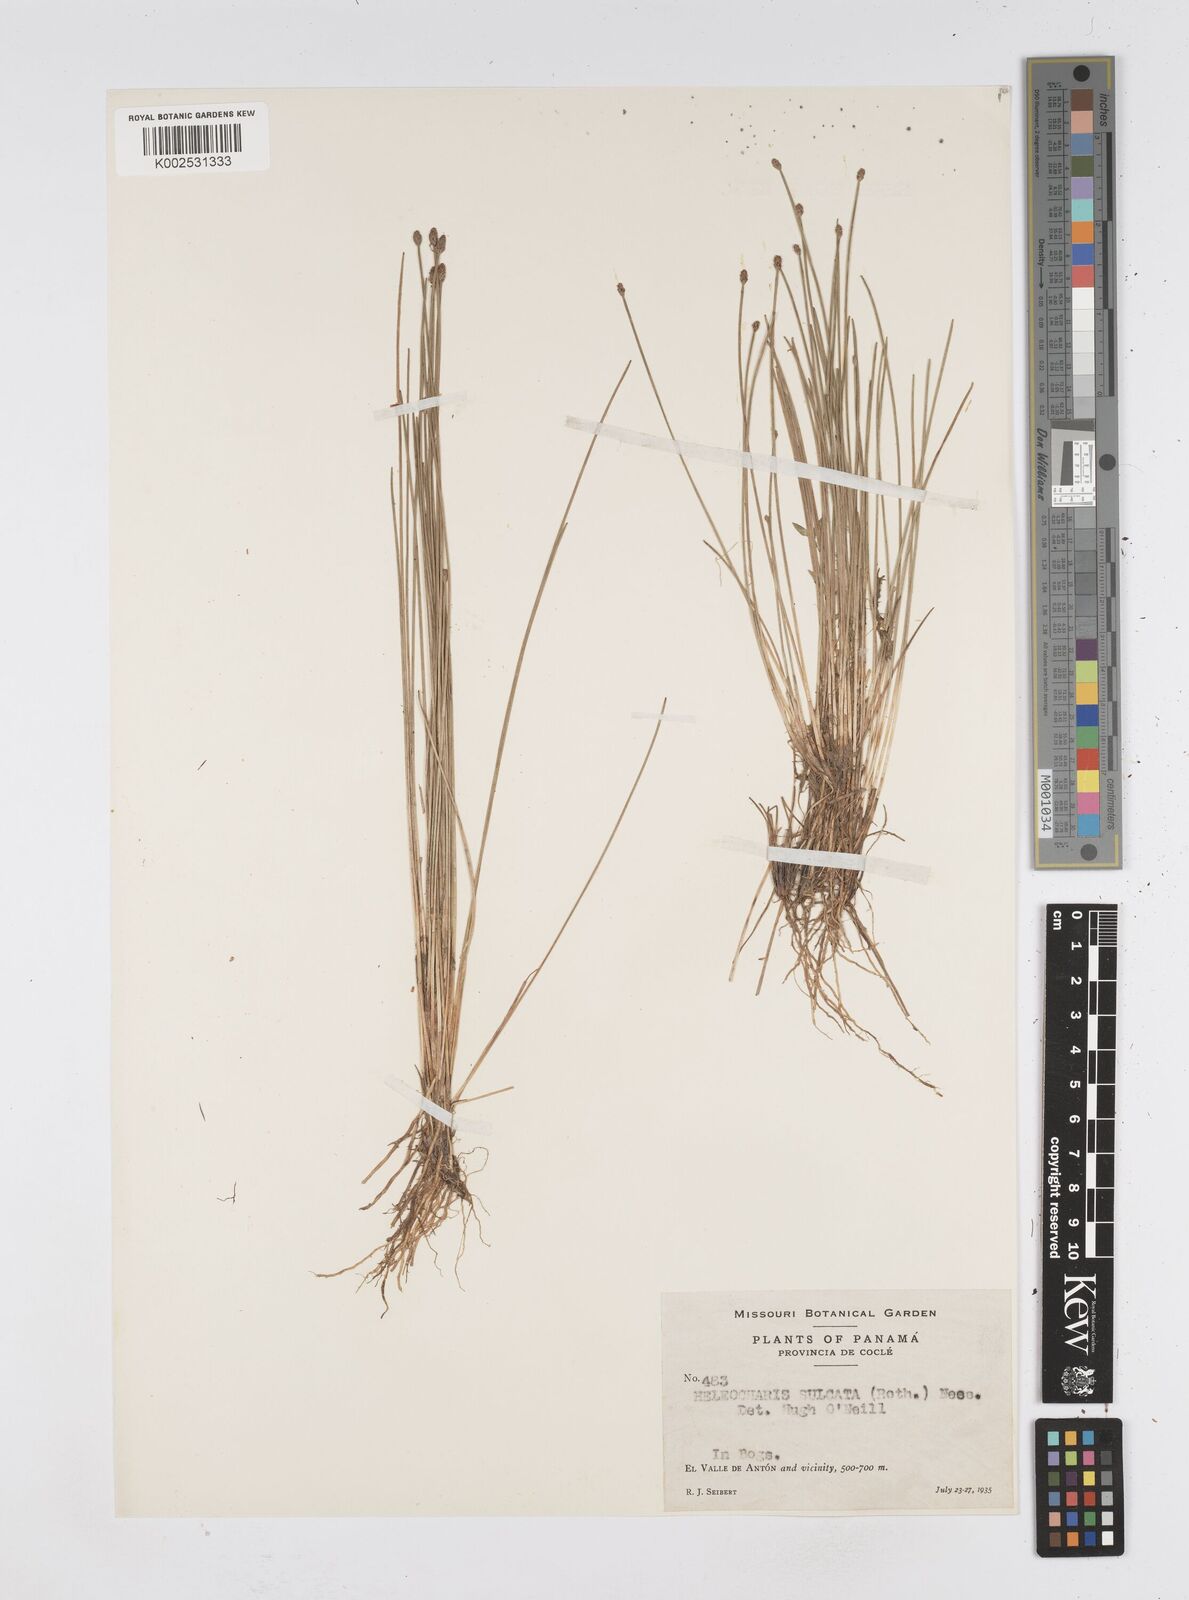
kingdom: Plantae
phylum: Tracheophyta
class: Liliopsida
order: Poales
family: Cyperaceae
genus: Eleocharis
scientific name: Eleocharis filiculmis
